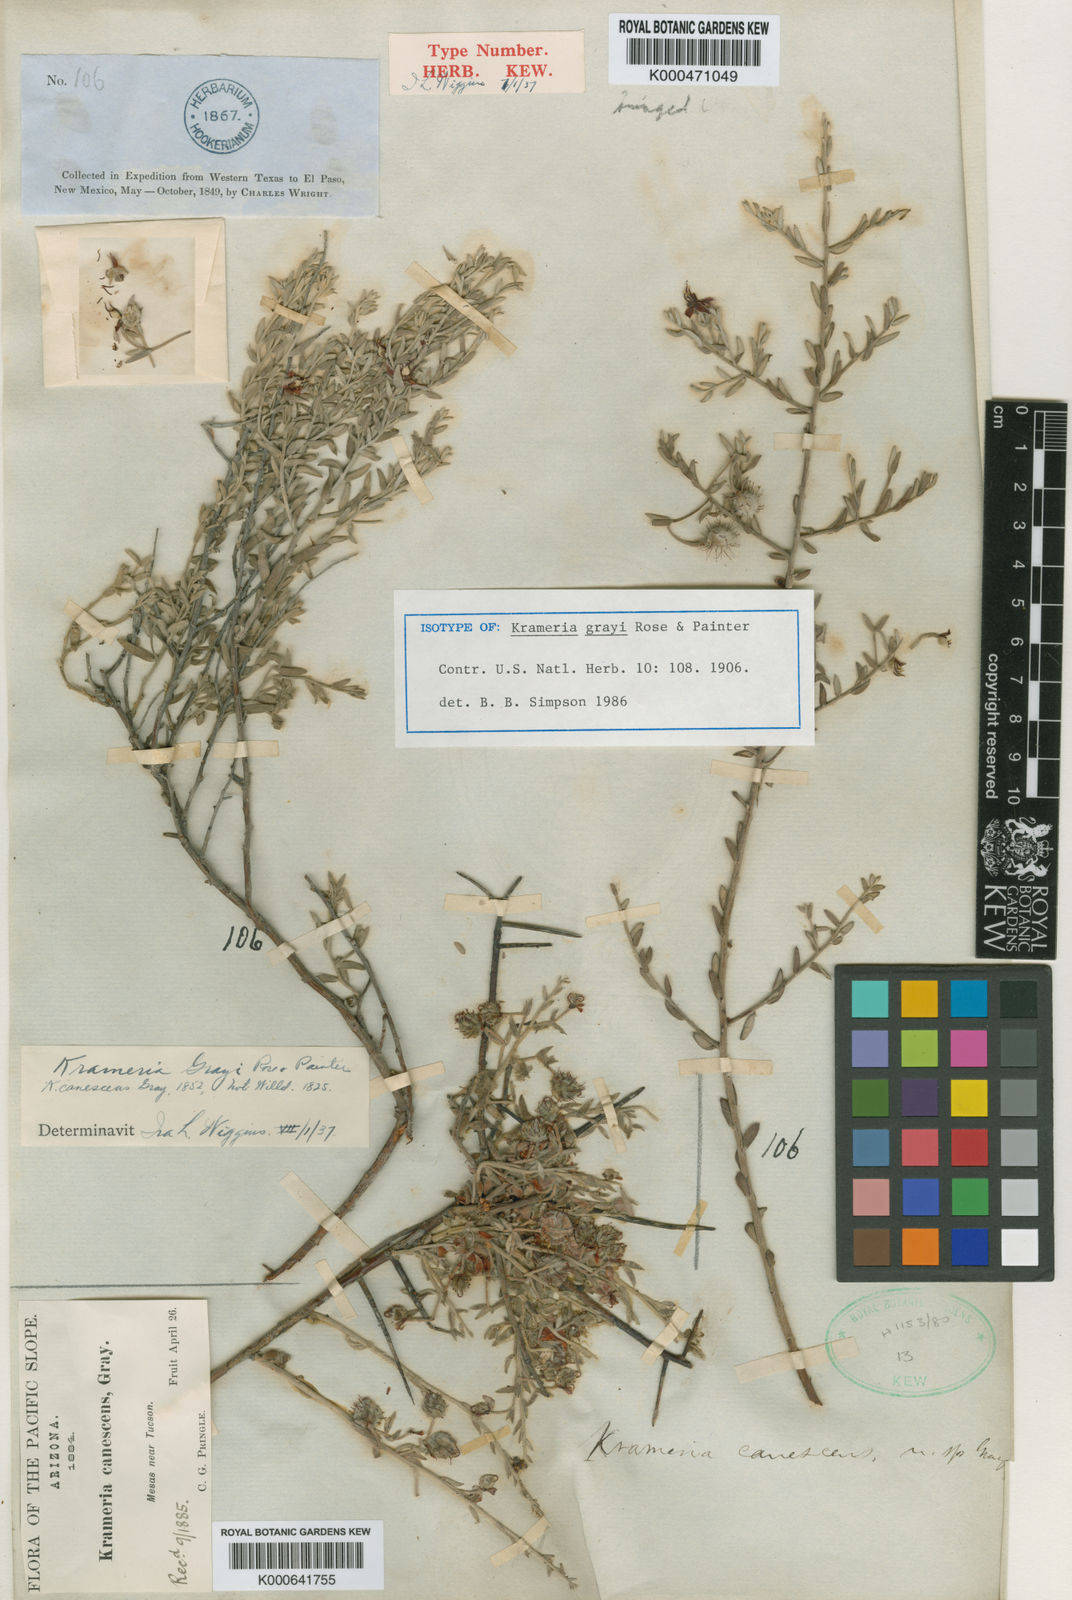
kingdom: Plantae
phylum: Tracheophyta
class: Magnoliopsida
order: Zygophyllales
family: Krameriaceae
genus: Krameria
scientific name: Krameria bicolor
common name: White ratany
